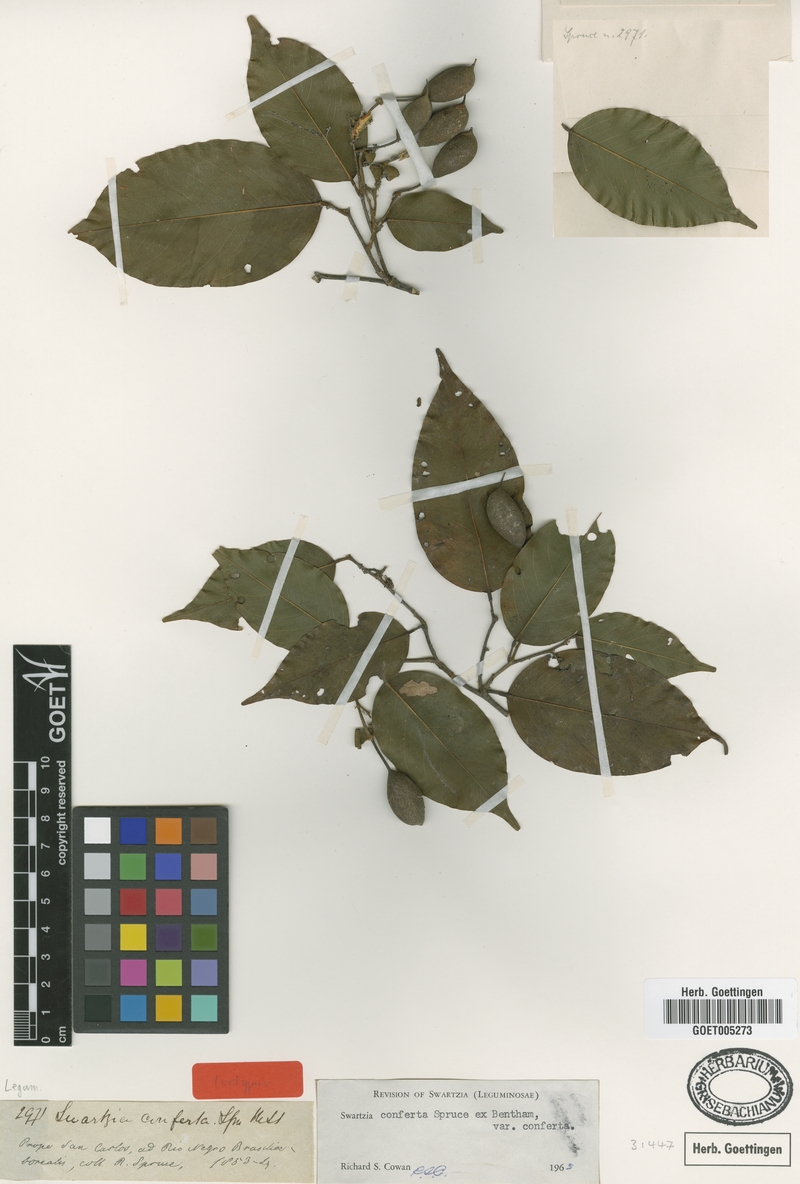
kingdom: Plantae
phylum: Tracheophyta
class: Magnoliopsida
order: Fabales
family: Fabaceae
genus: Swartzia
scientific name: Swartzia conferta
